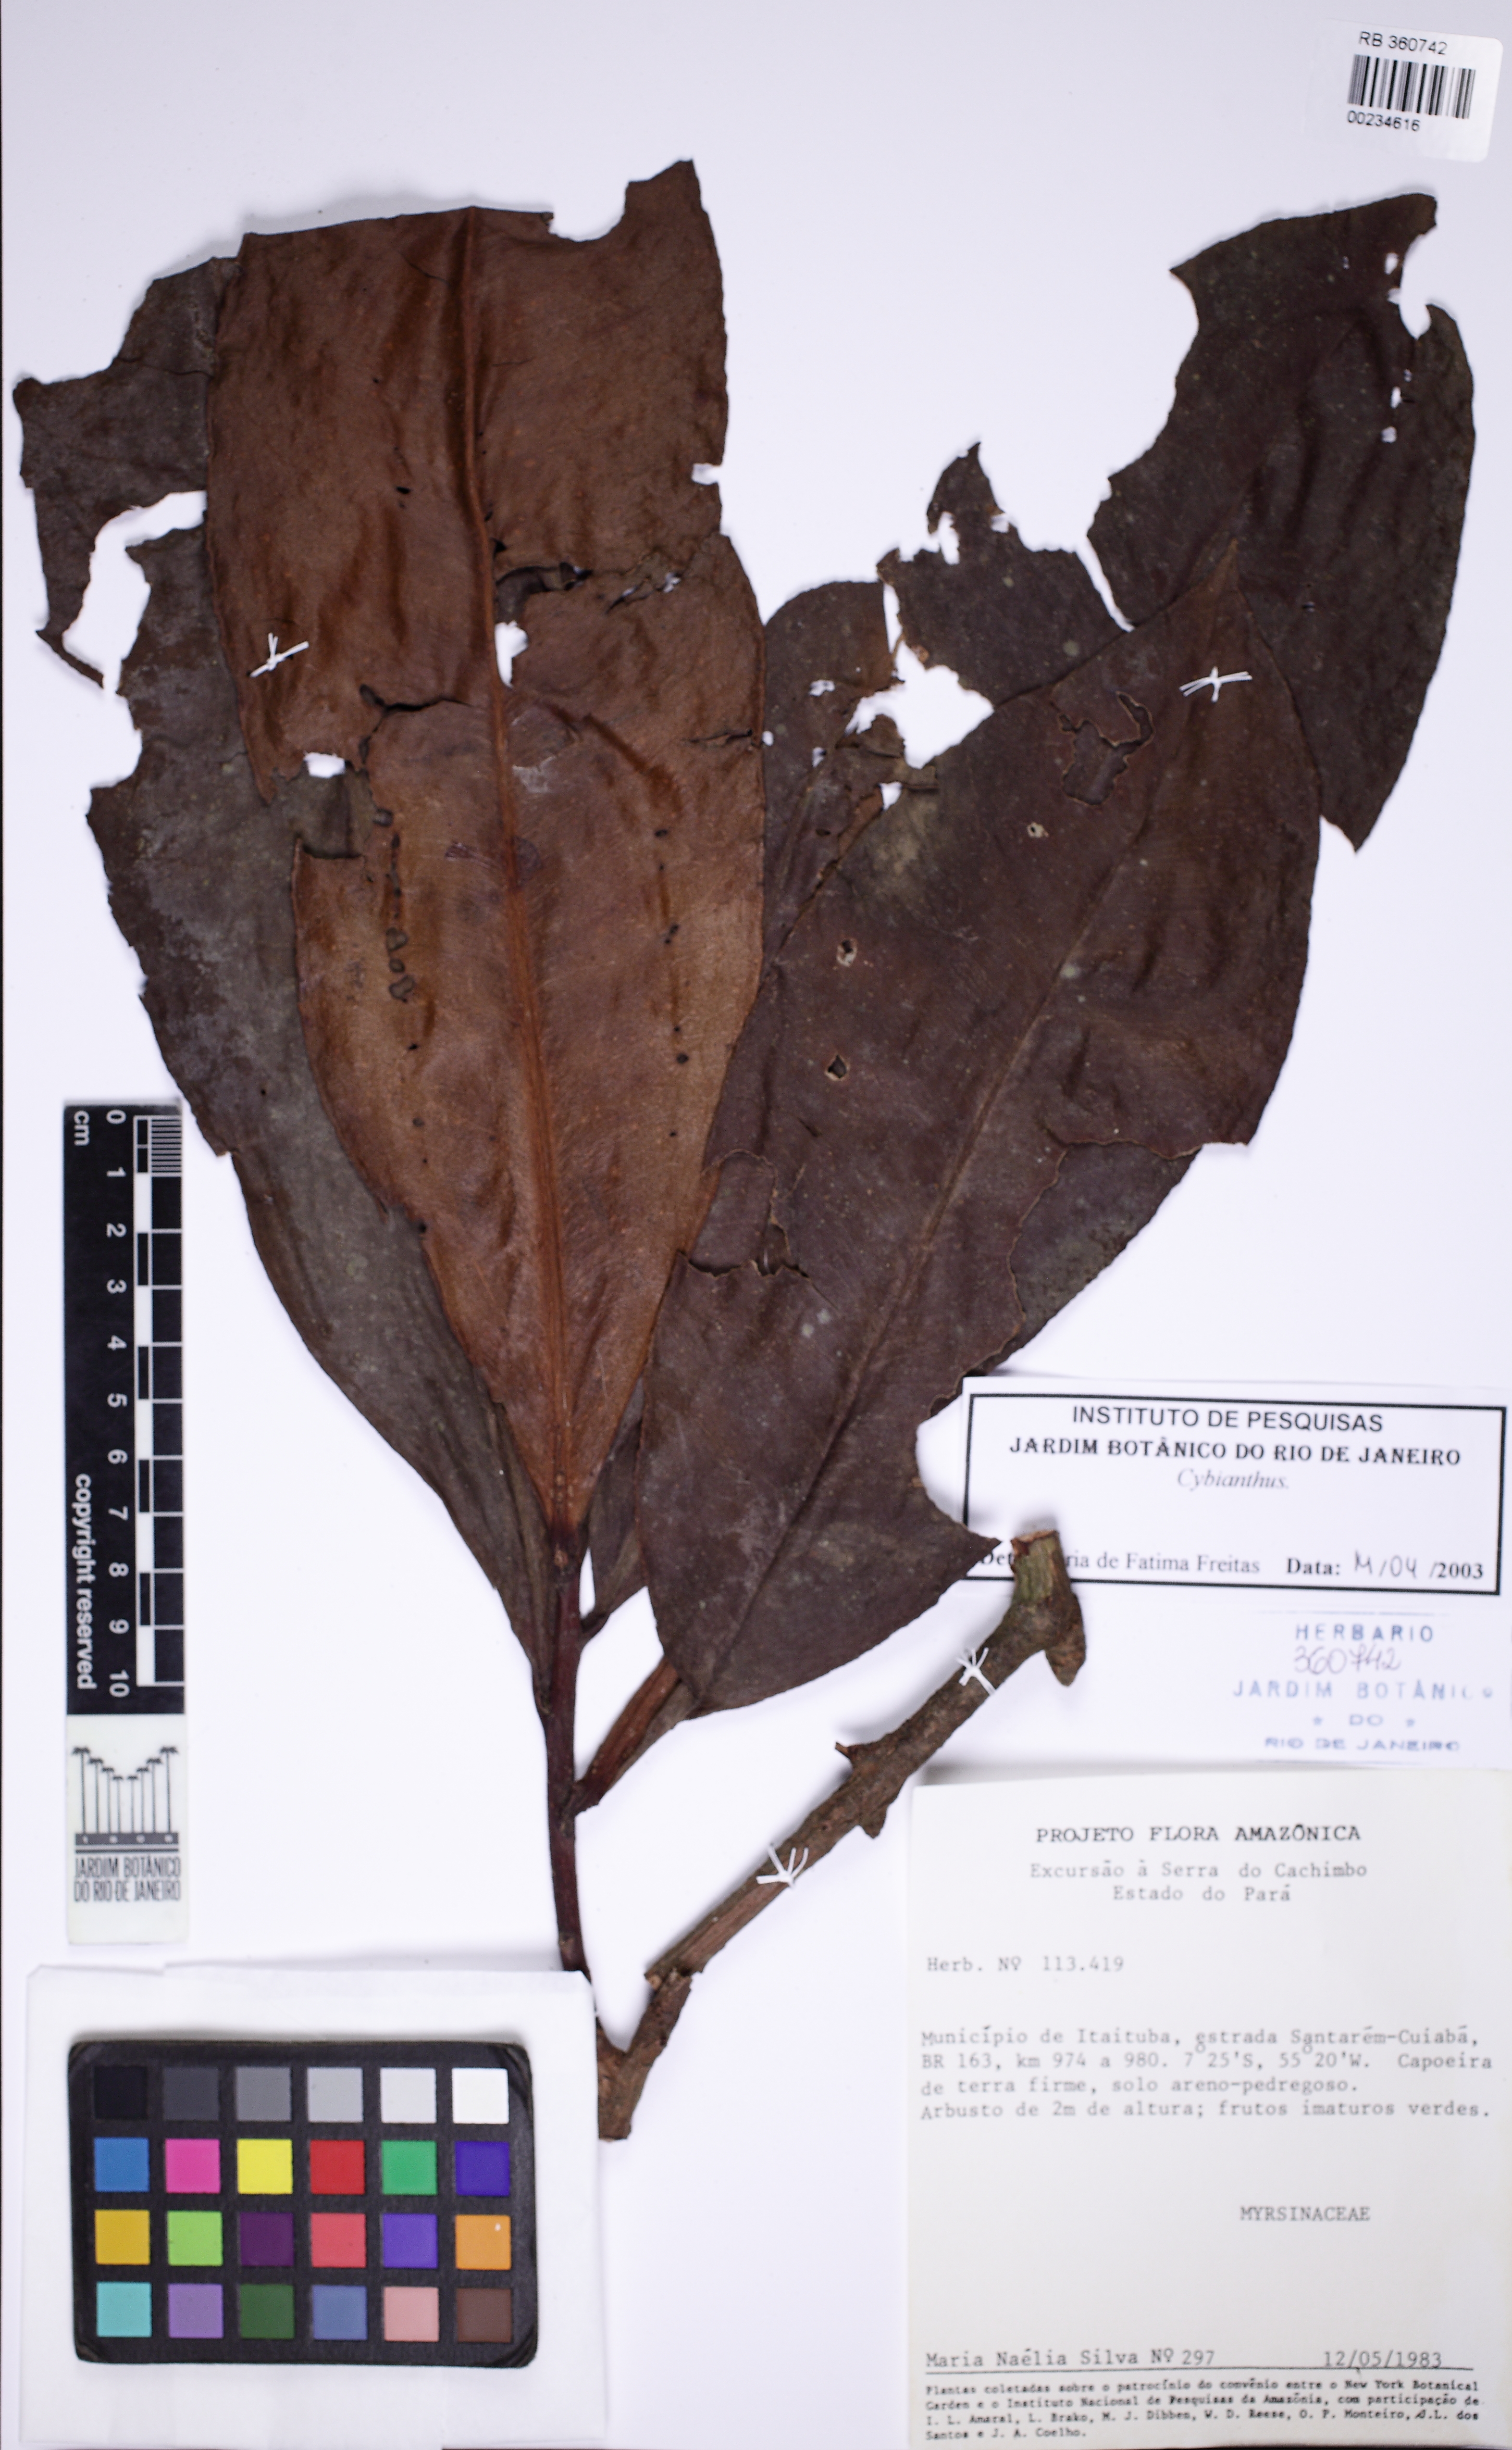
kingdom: Plantae
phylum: Tracheophyta
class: Magnoliopsida
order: Ericales
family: Primulaceae
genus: Cybianthus
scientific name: Cybianthus
